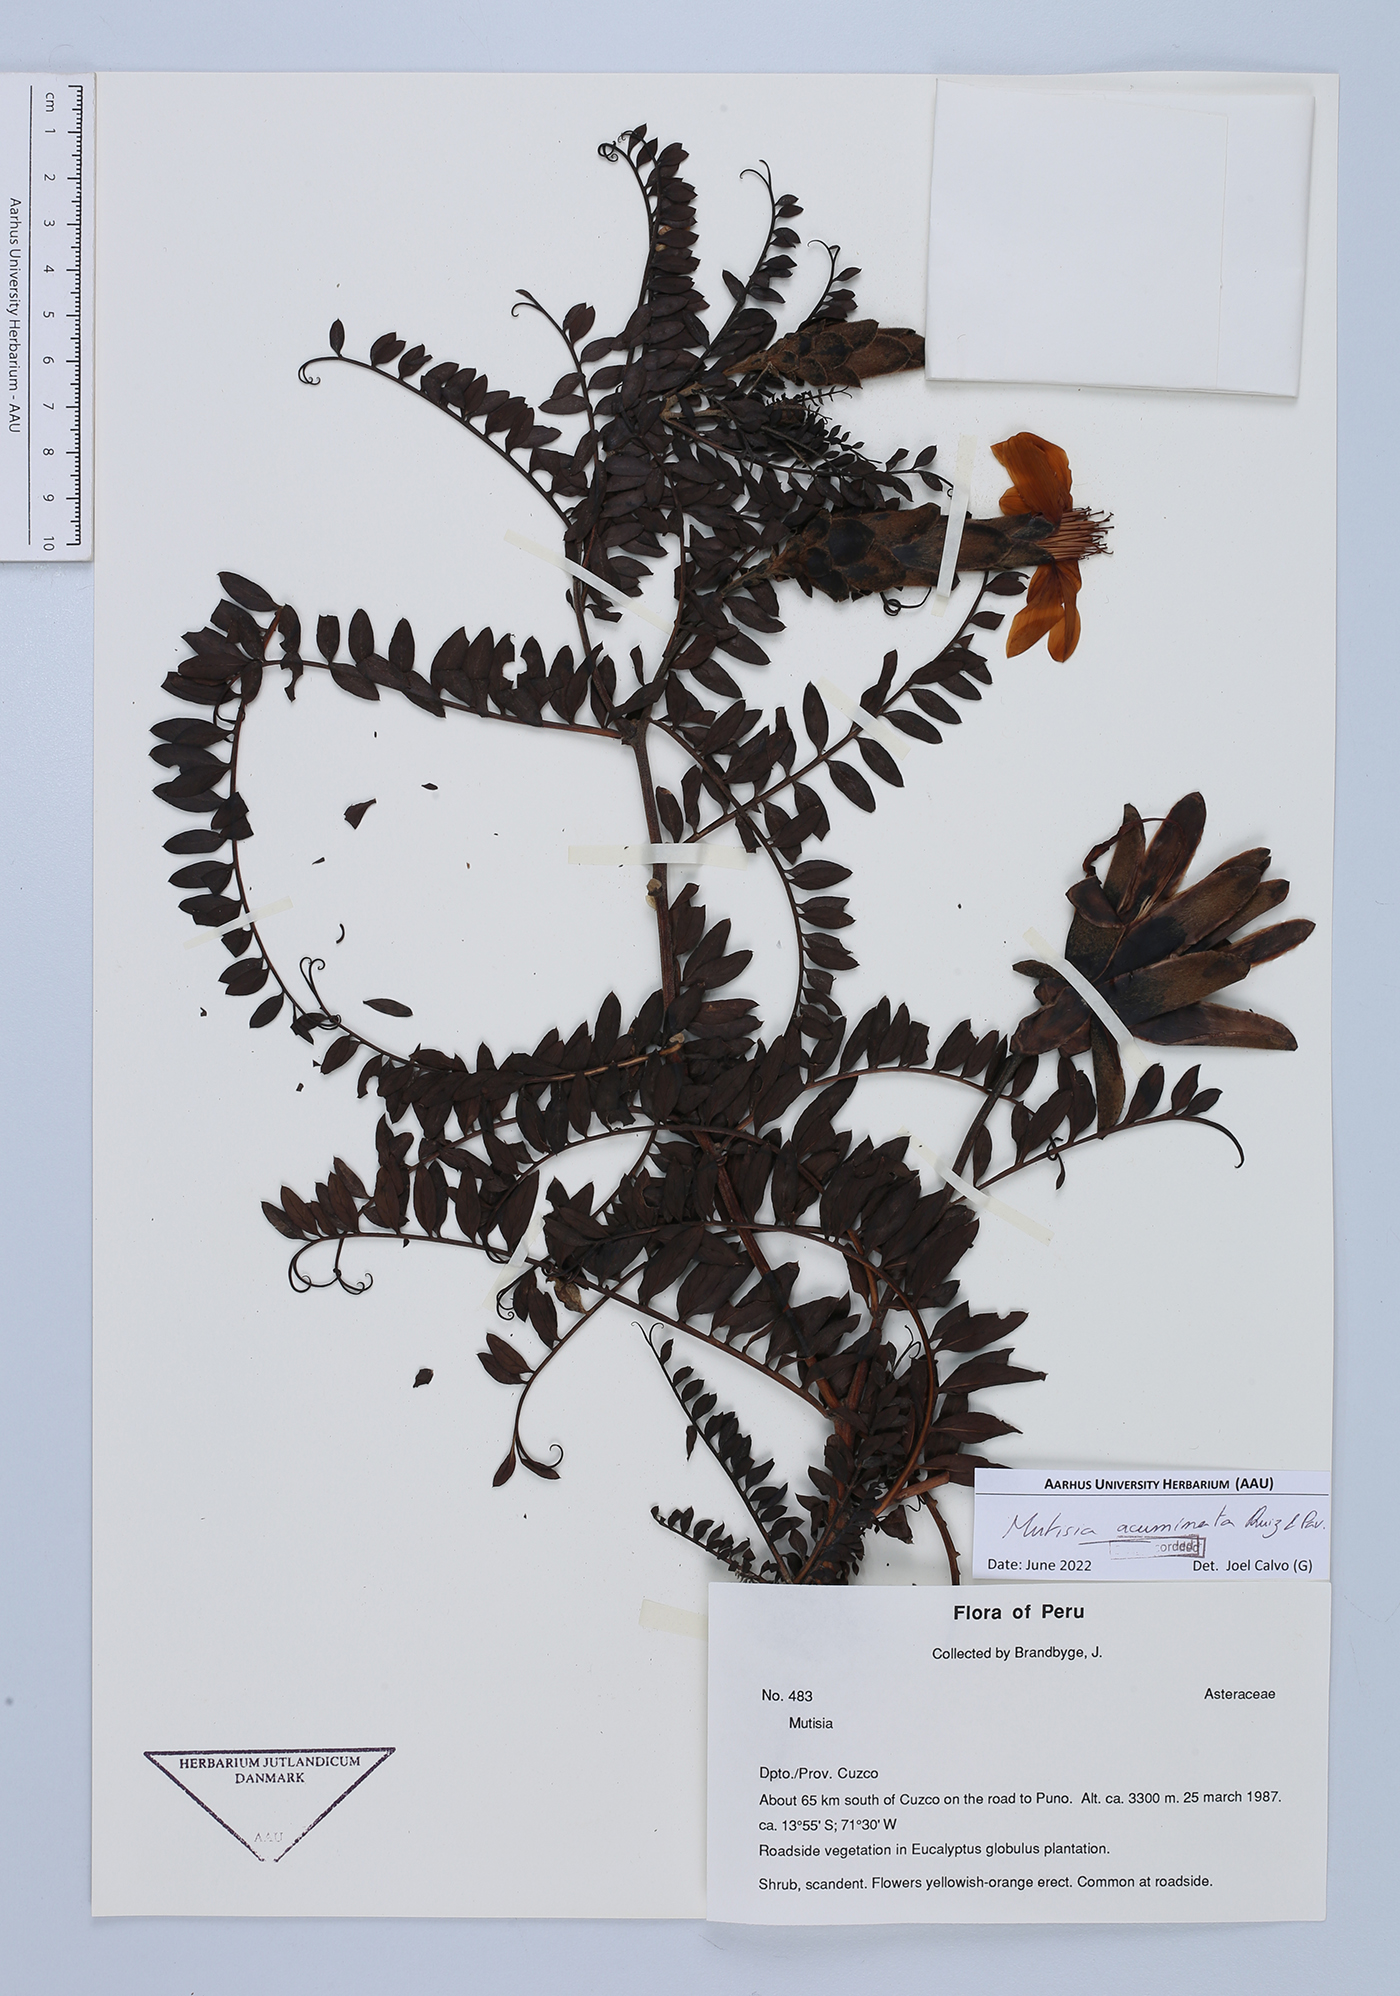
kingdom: Plantae
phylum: Tracheophyta
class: Magnoliopsida
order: Asterales
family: Asteraceae
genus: Mutisia
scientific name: Mutisia acuminata
